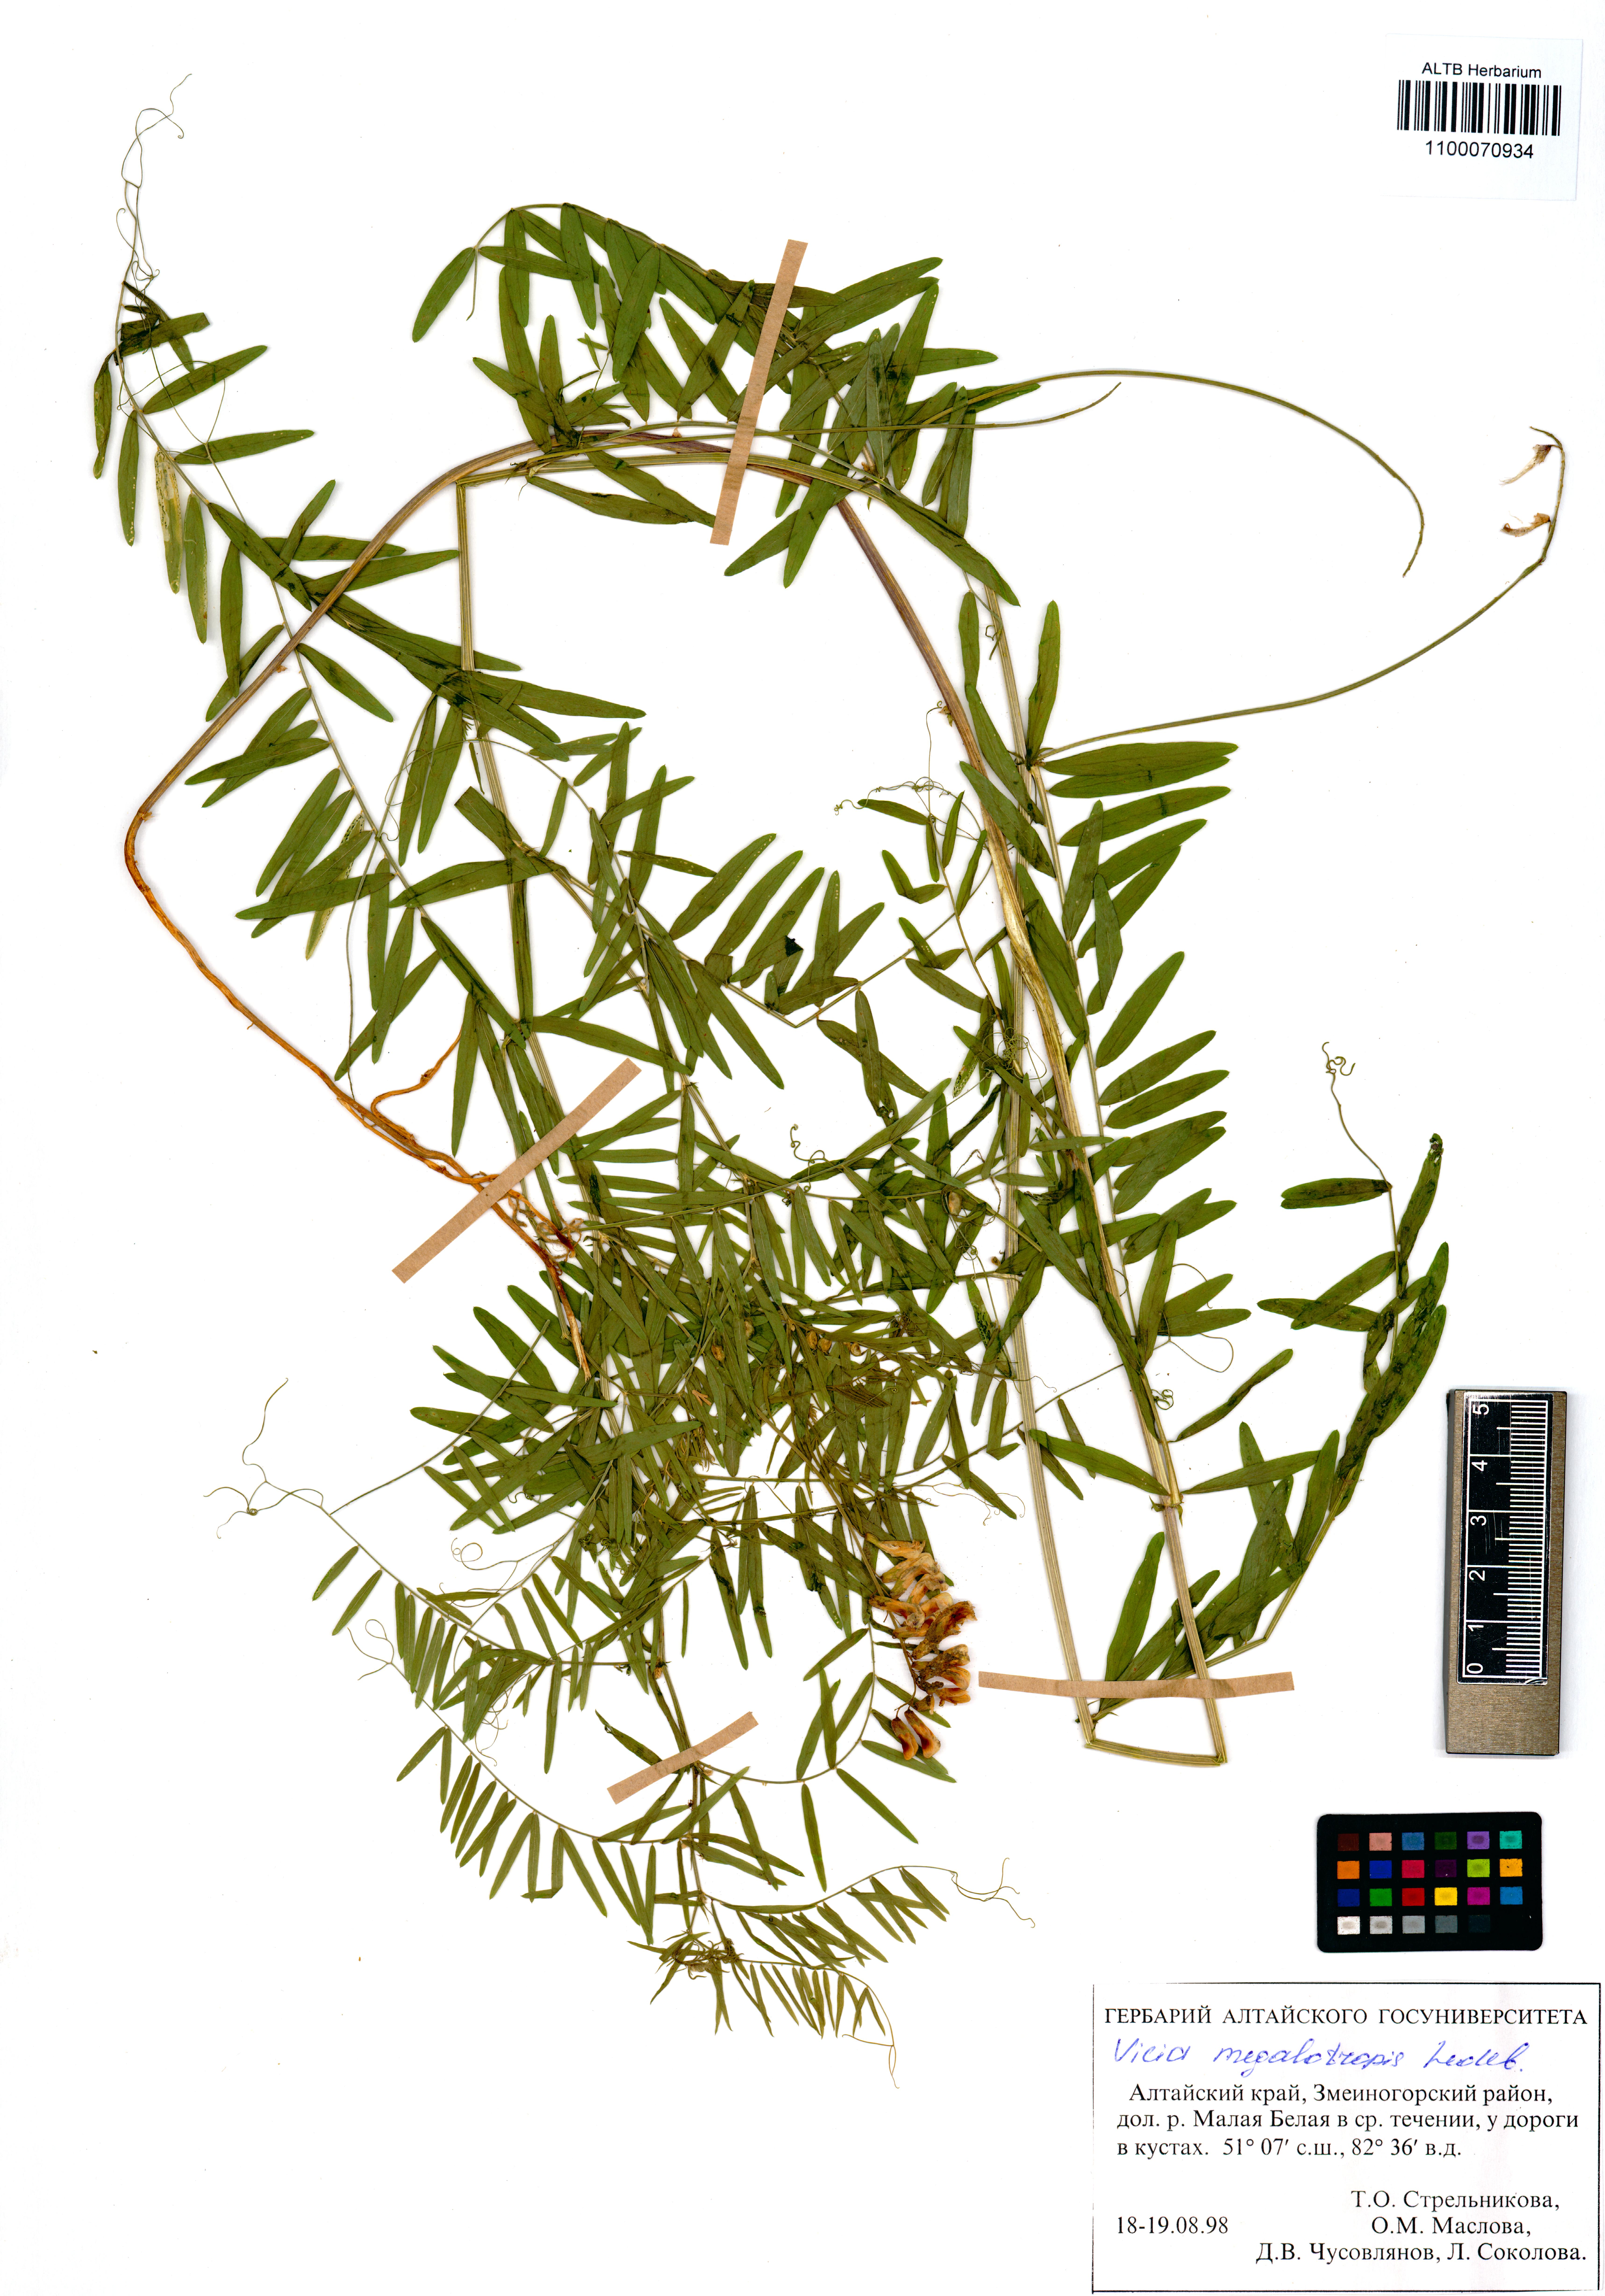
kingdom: Plantae
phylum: Tracheophyta
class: Magnoliopsida
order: Fabales
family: Fabaceae
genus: Vicia
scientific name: Vicia megalotropis
